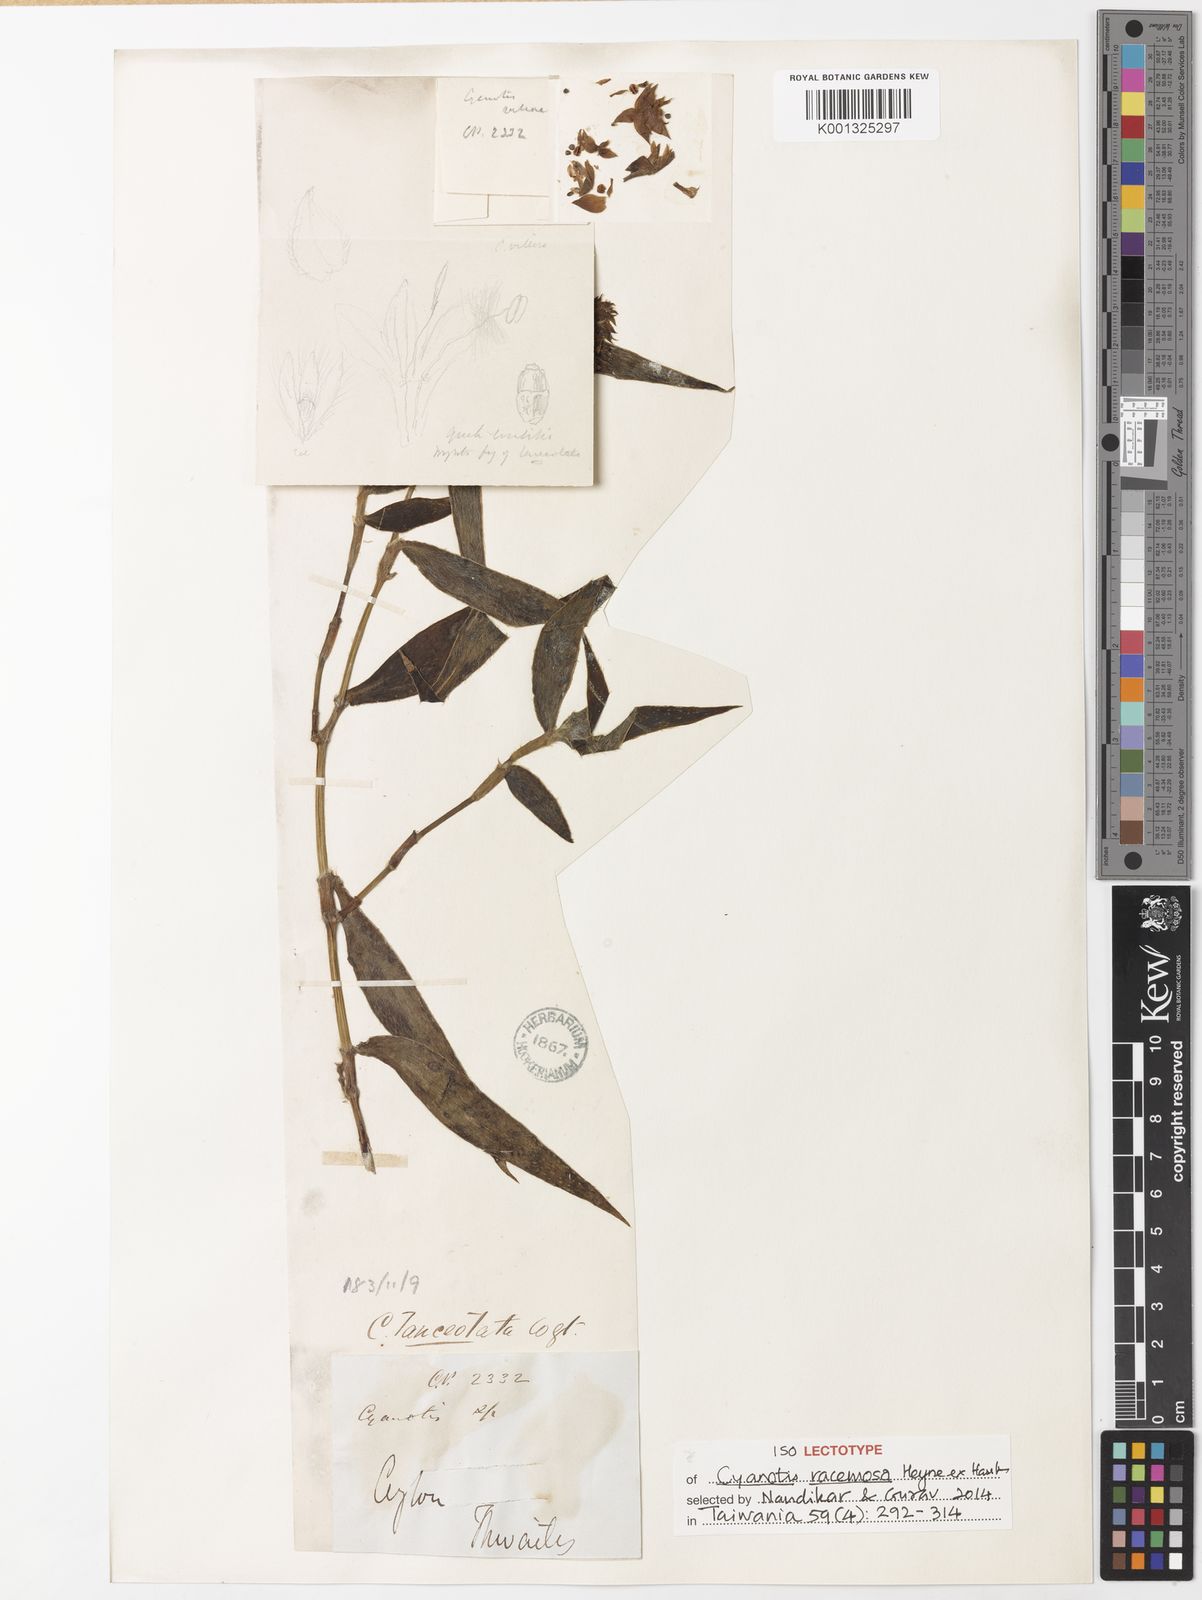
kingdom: Plantae
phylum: Tracheophyta
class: Liliopsida
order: Commelinales
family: Commelinaceae
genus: Cyanotis
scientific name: Cyanotis lanceolata
